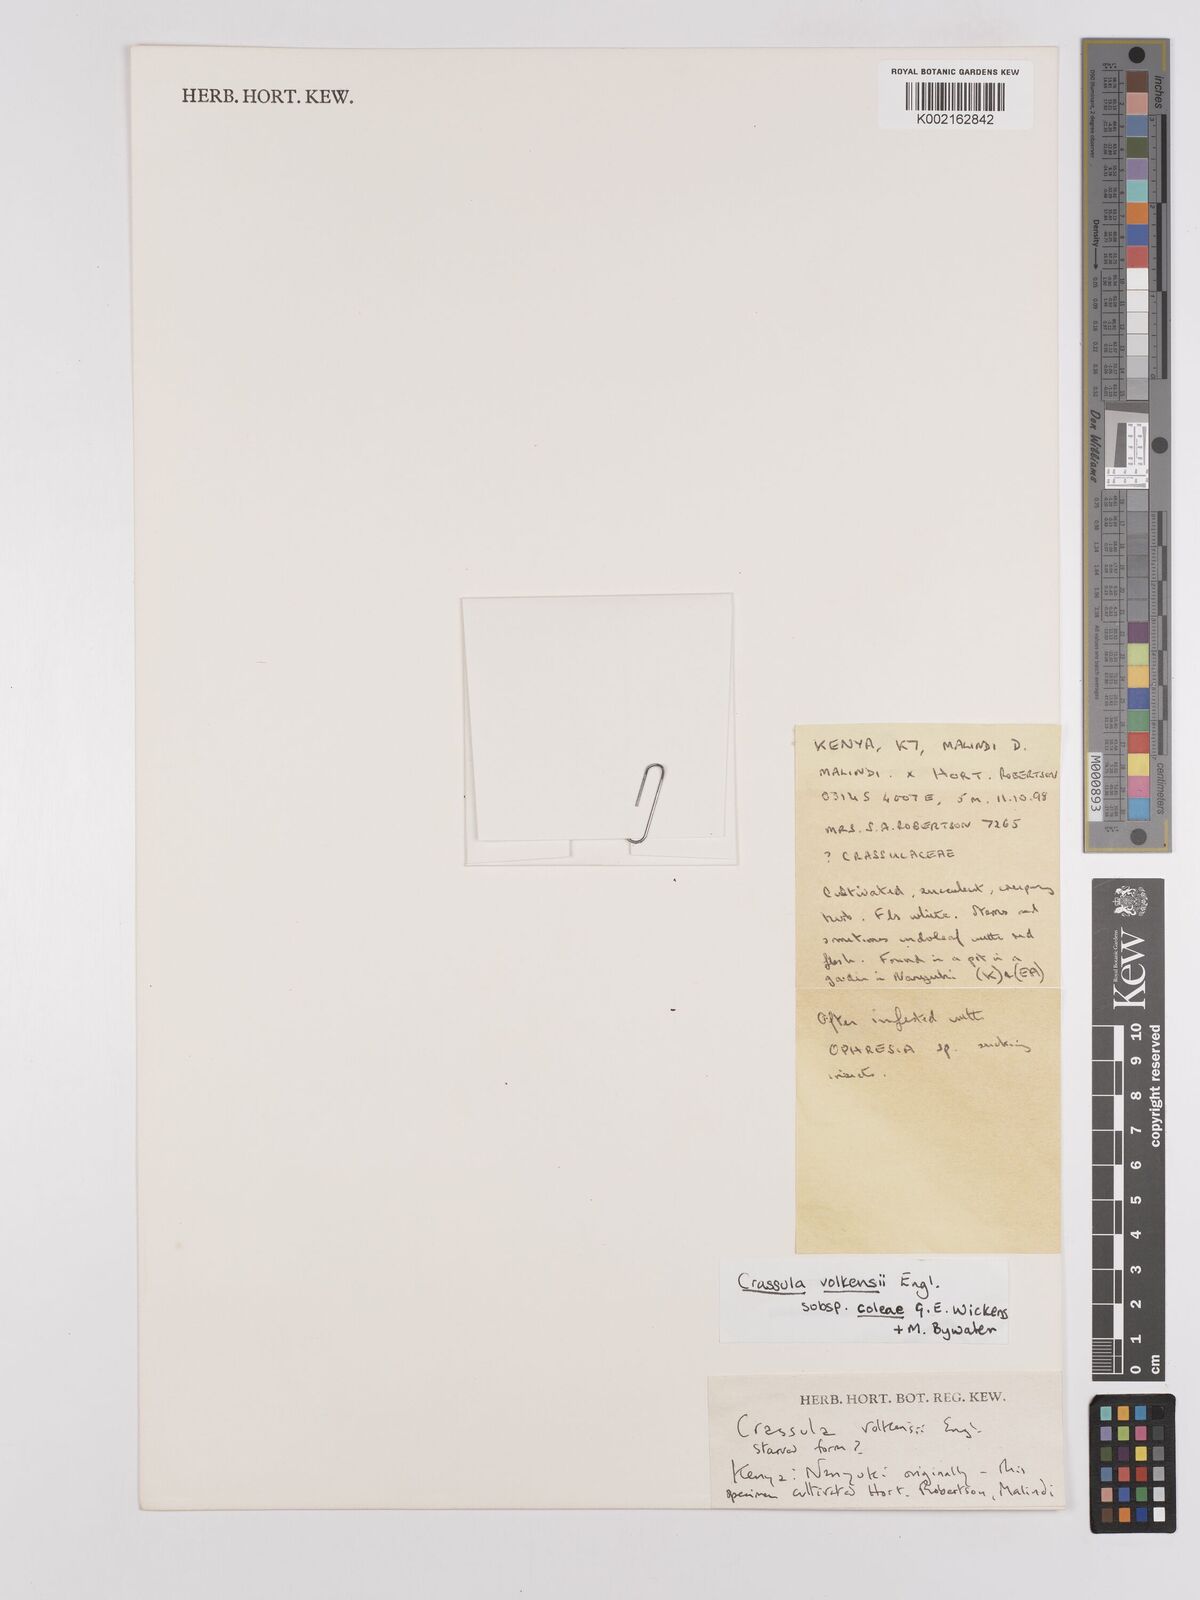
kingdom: Plantae
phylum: Tracheophyta
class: Magnoliopsida
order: Saxifragales
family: Crassulaceae
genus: Crassula
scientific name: Crassula volkensii
